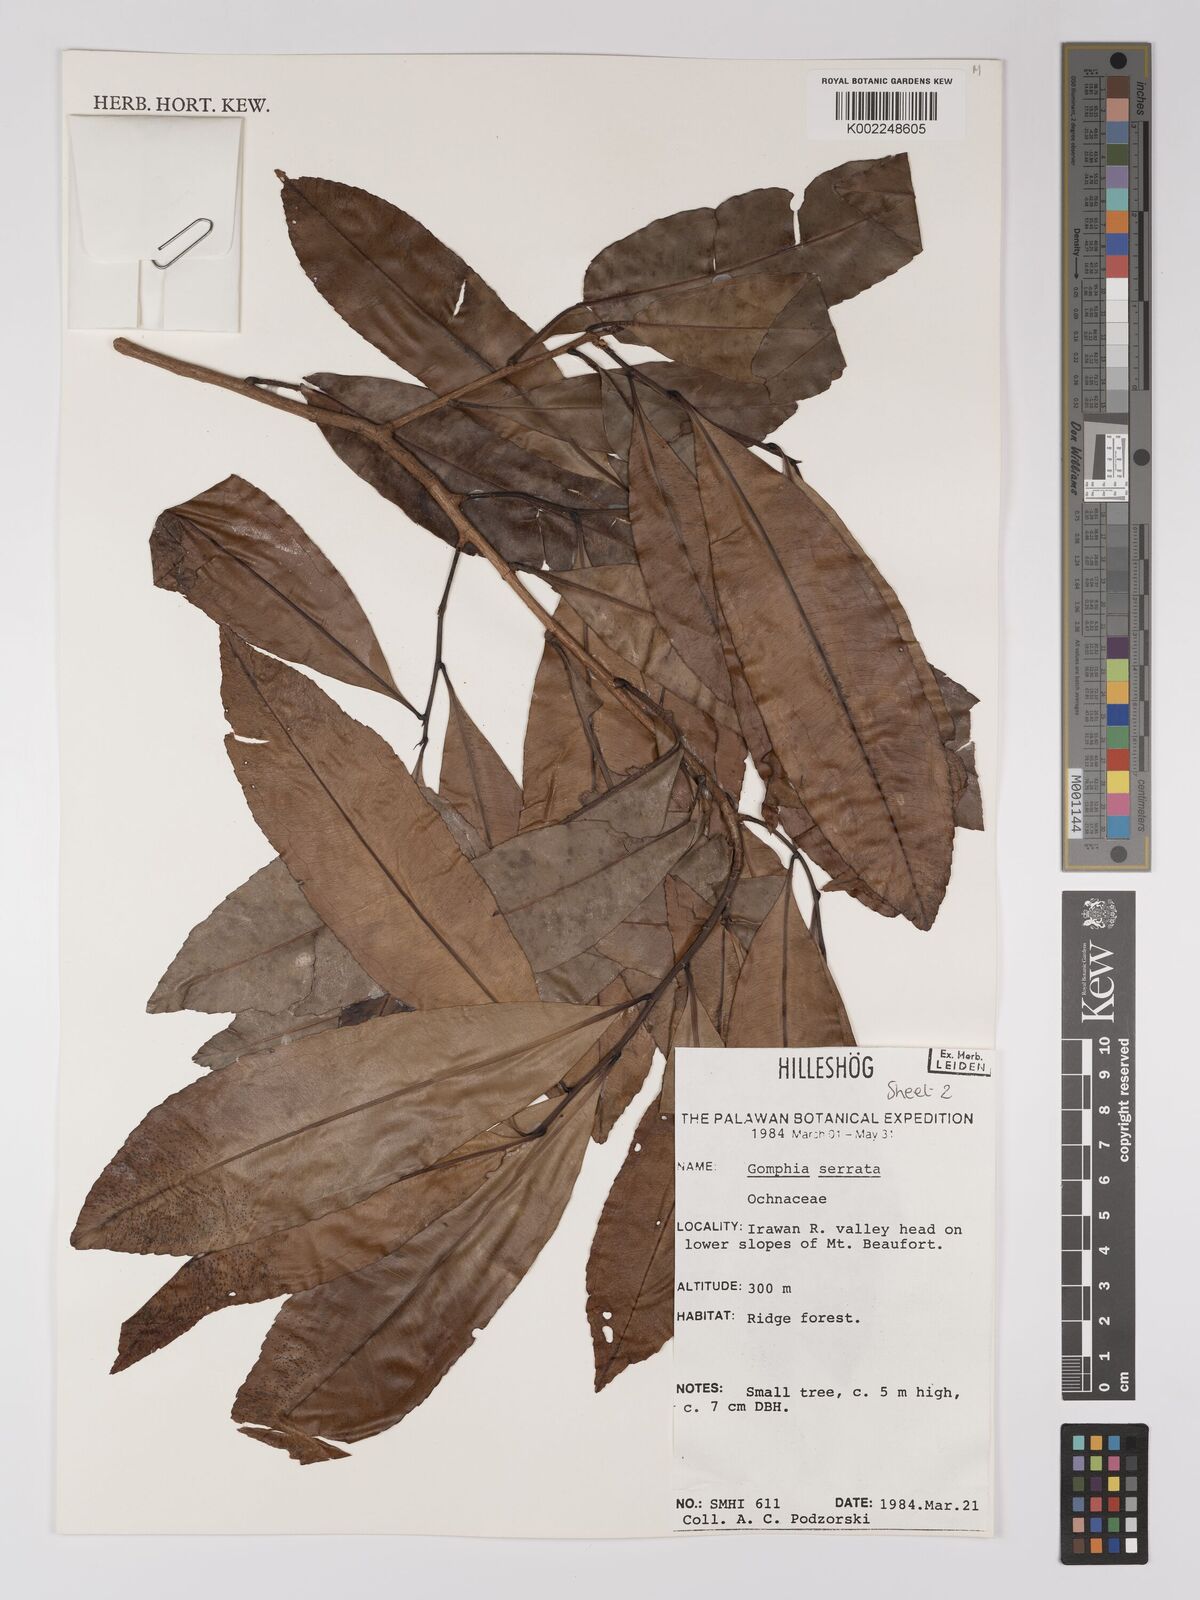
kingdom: Plantae
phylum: Tracheophyta
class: Magnoliopsida
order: Malpighiales
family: Ochnaceae
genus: Gomphia
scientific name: Gomphia serrata
